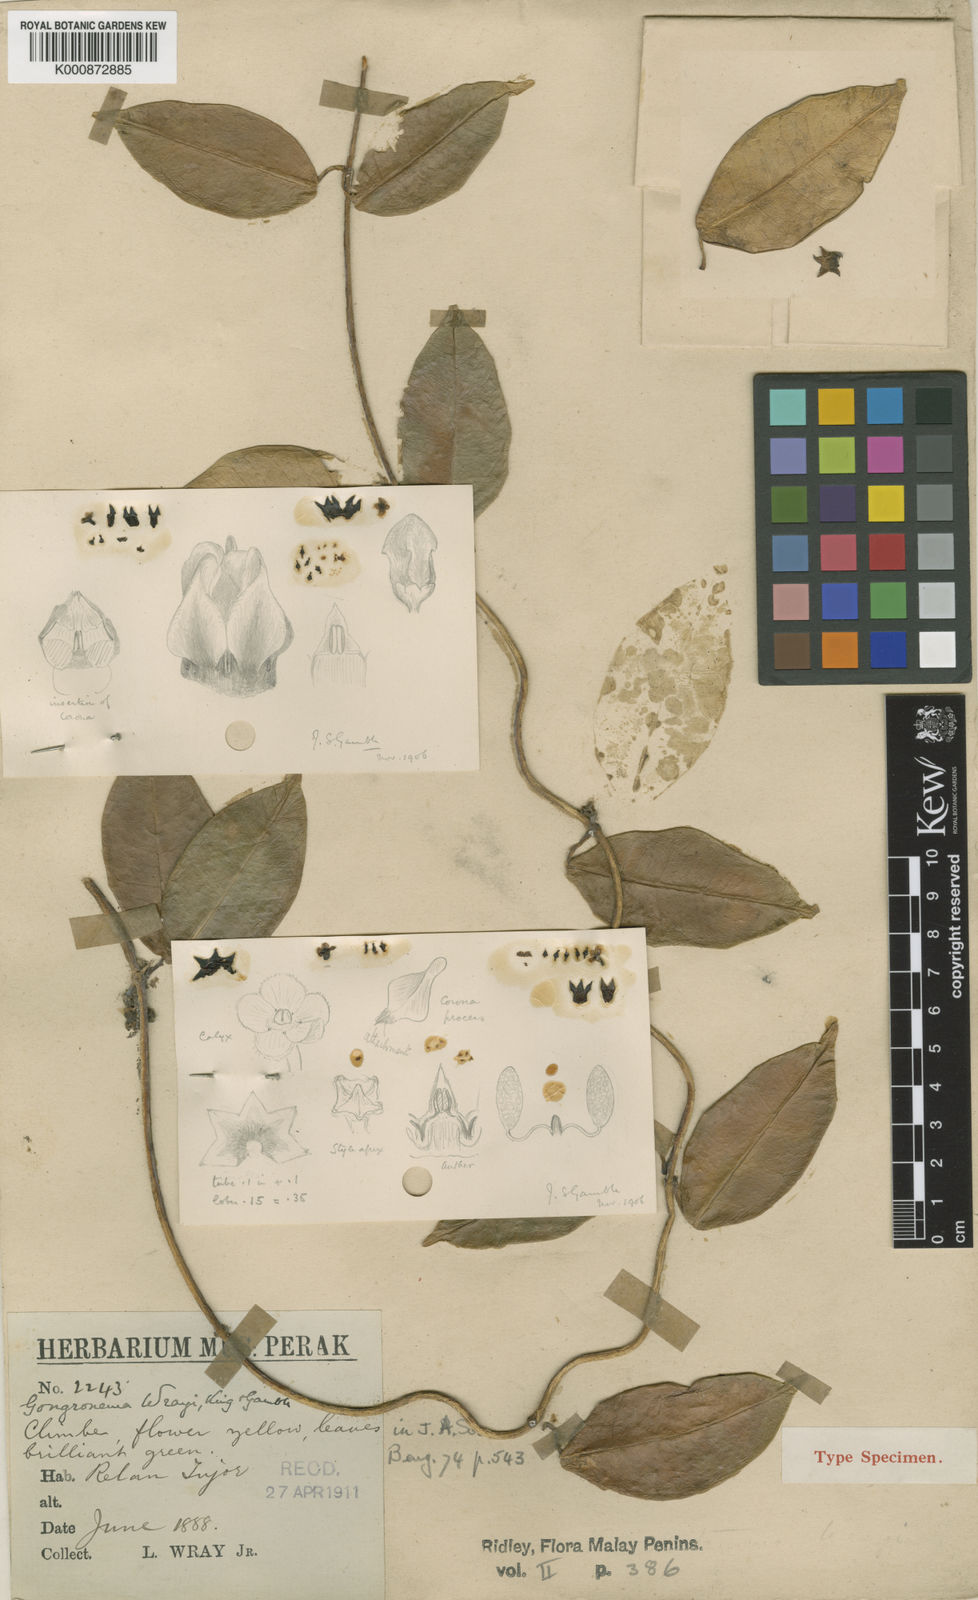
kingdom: Plantae
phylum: Tracheophyta
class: Magnoliopsida
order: Gentianales
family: Apocynaceae
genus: Hoya
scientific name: Hoya omlorii
